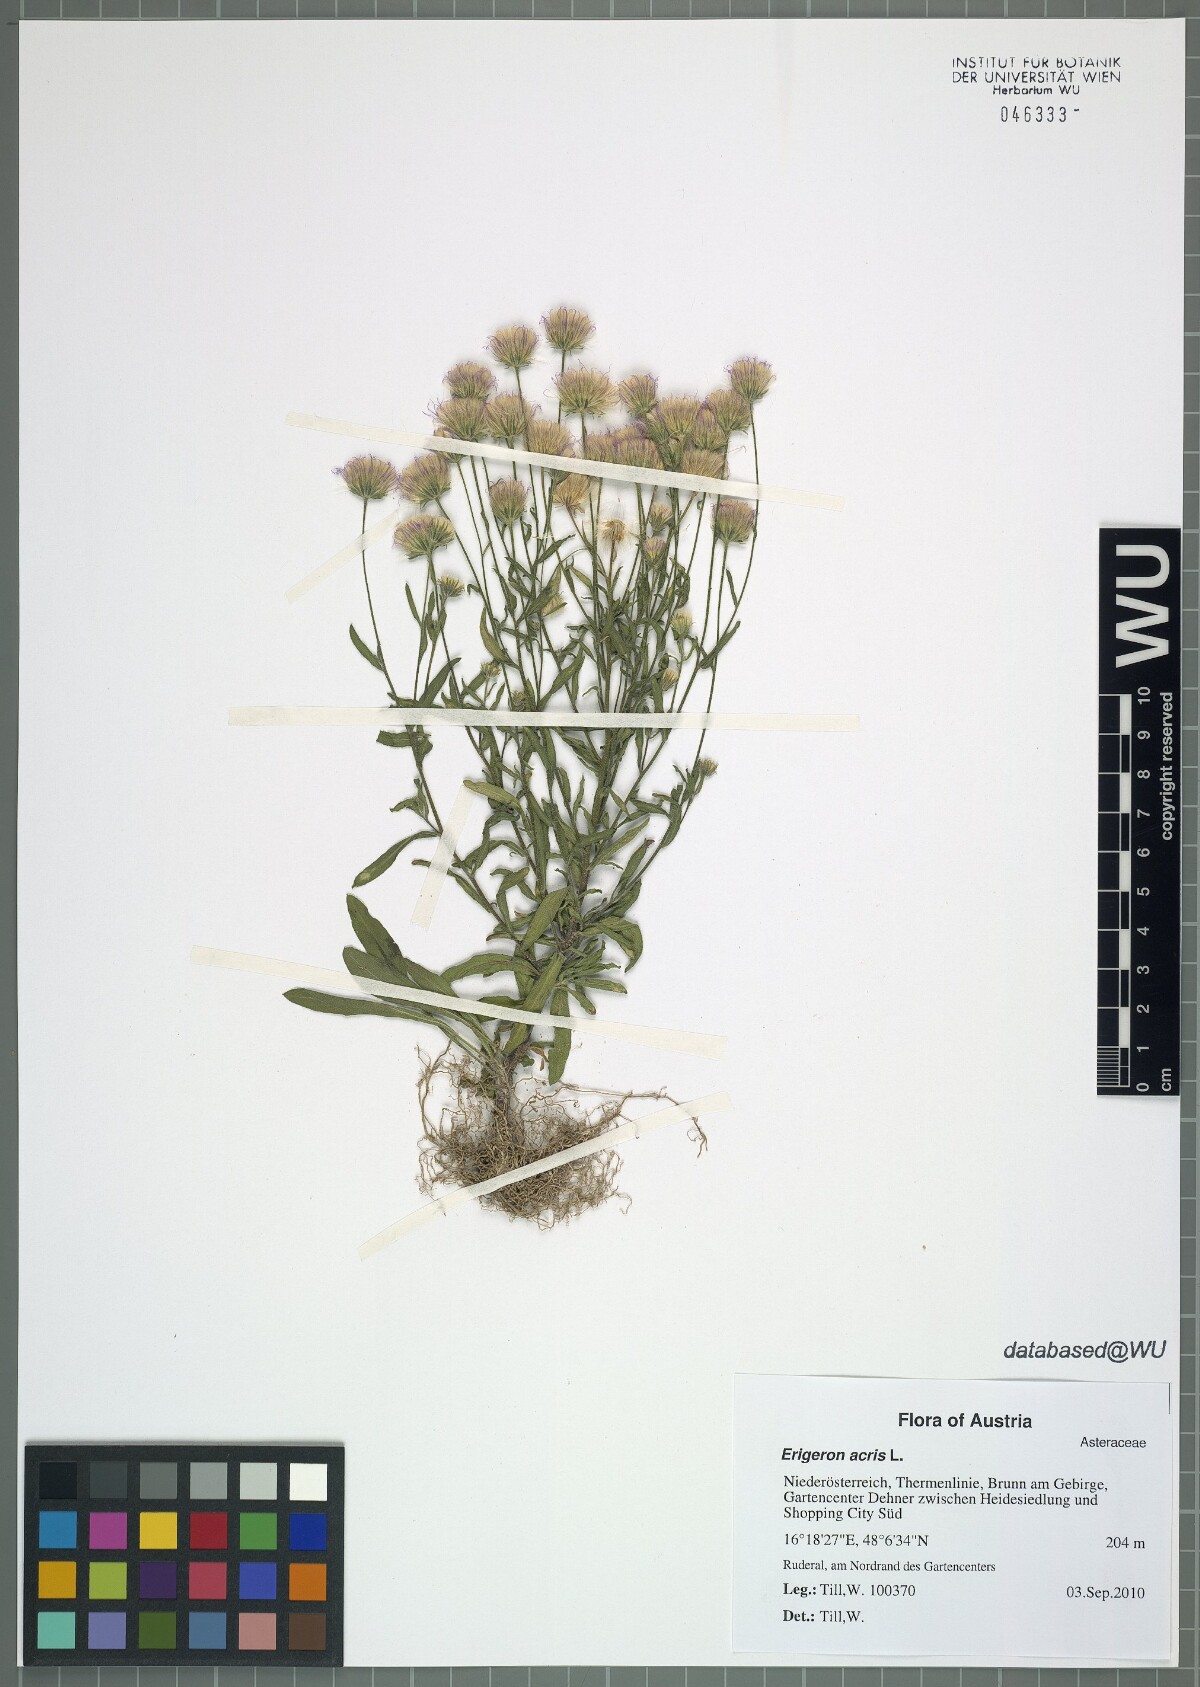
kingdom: Plantae
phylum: Tracheophyta
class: Magnoliopsida
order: Asterales
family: Asteraceae
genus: Erigeron
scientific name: Erigeron acris
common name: Blue fleabane
